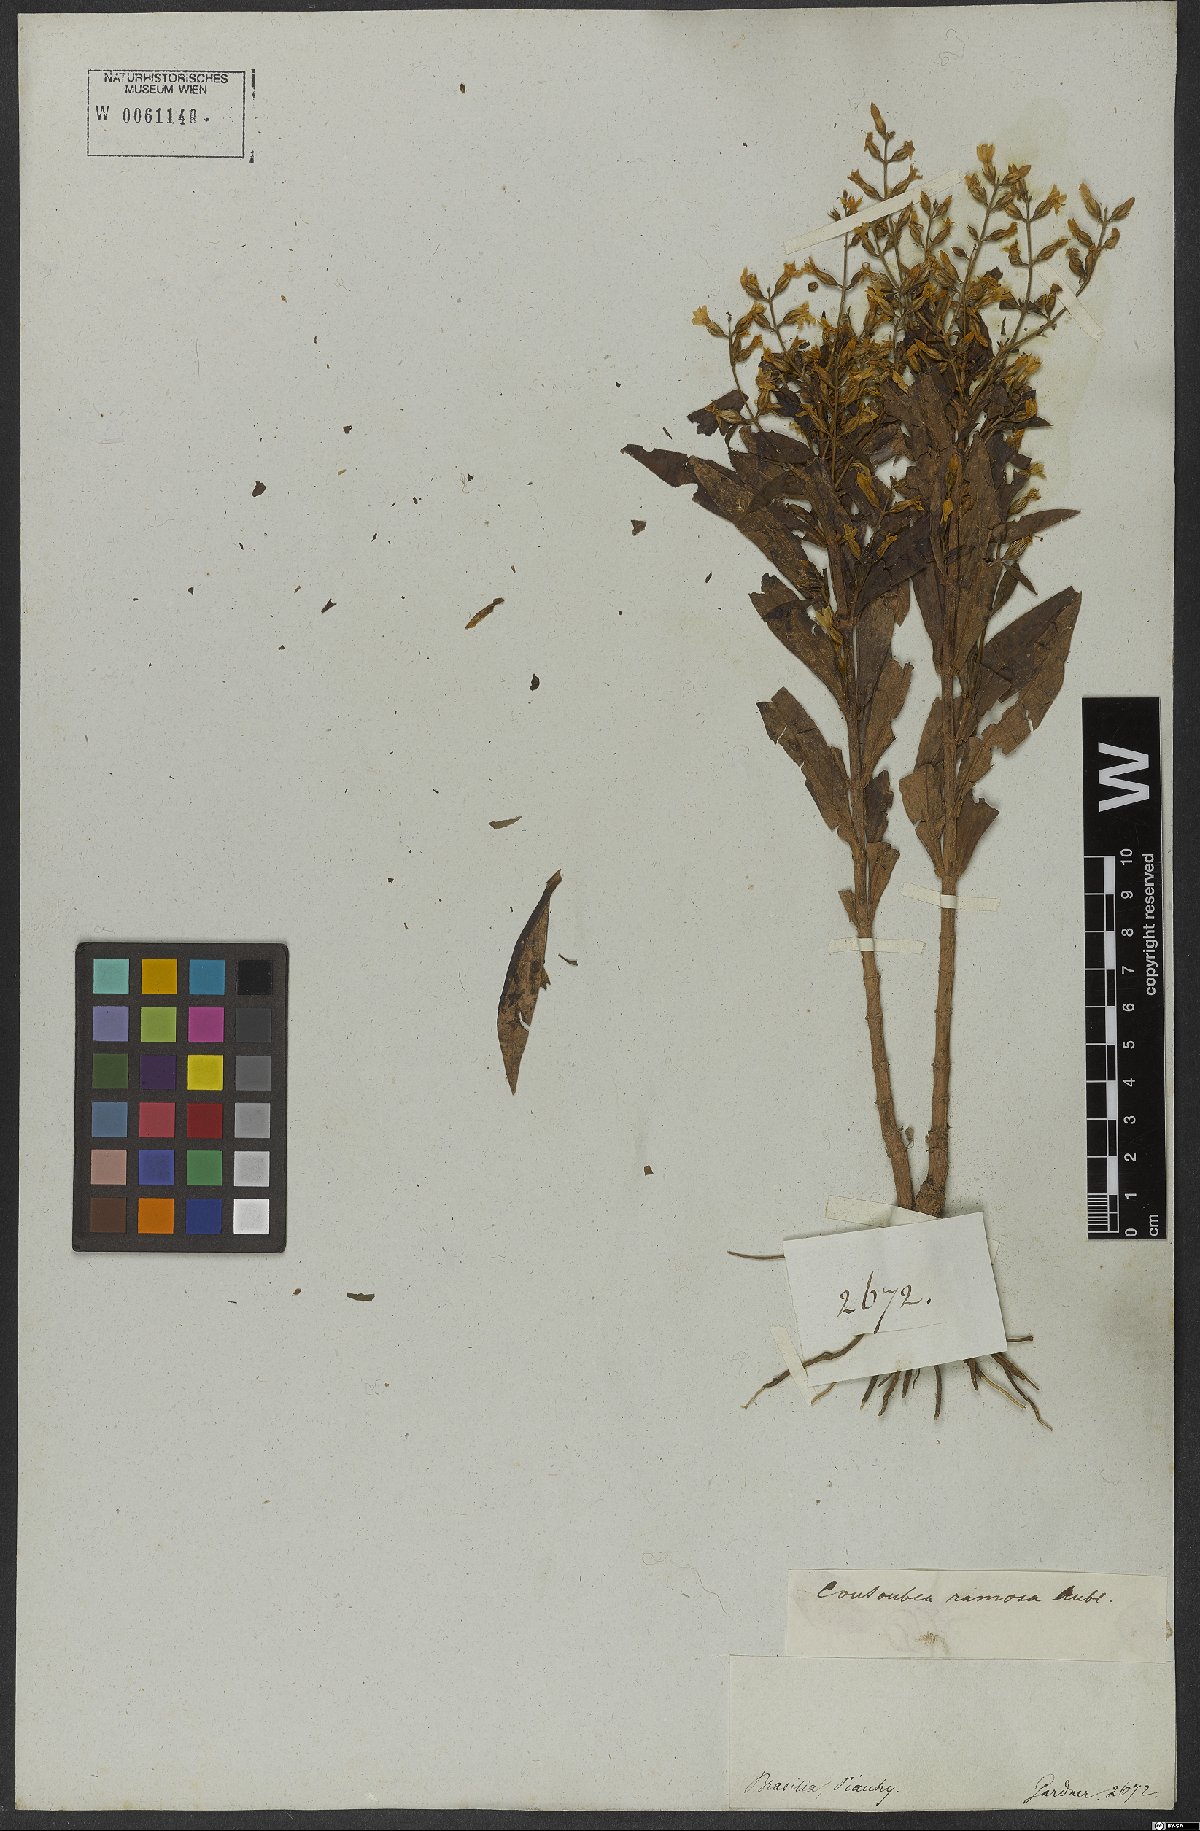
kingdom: Plantae
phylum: Tracheophyta
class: Magnoliopsida
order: Gentianales
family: Gentianaceae
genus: Coutoubea
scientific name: Coutoubea ramosa
